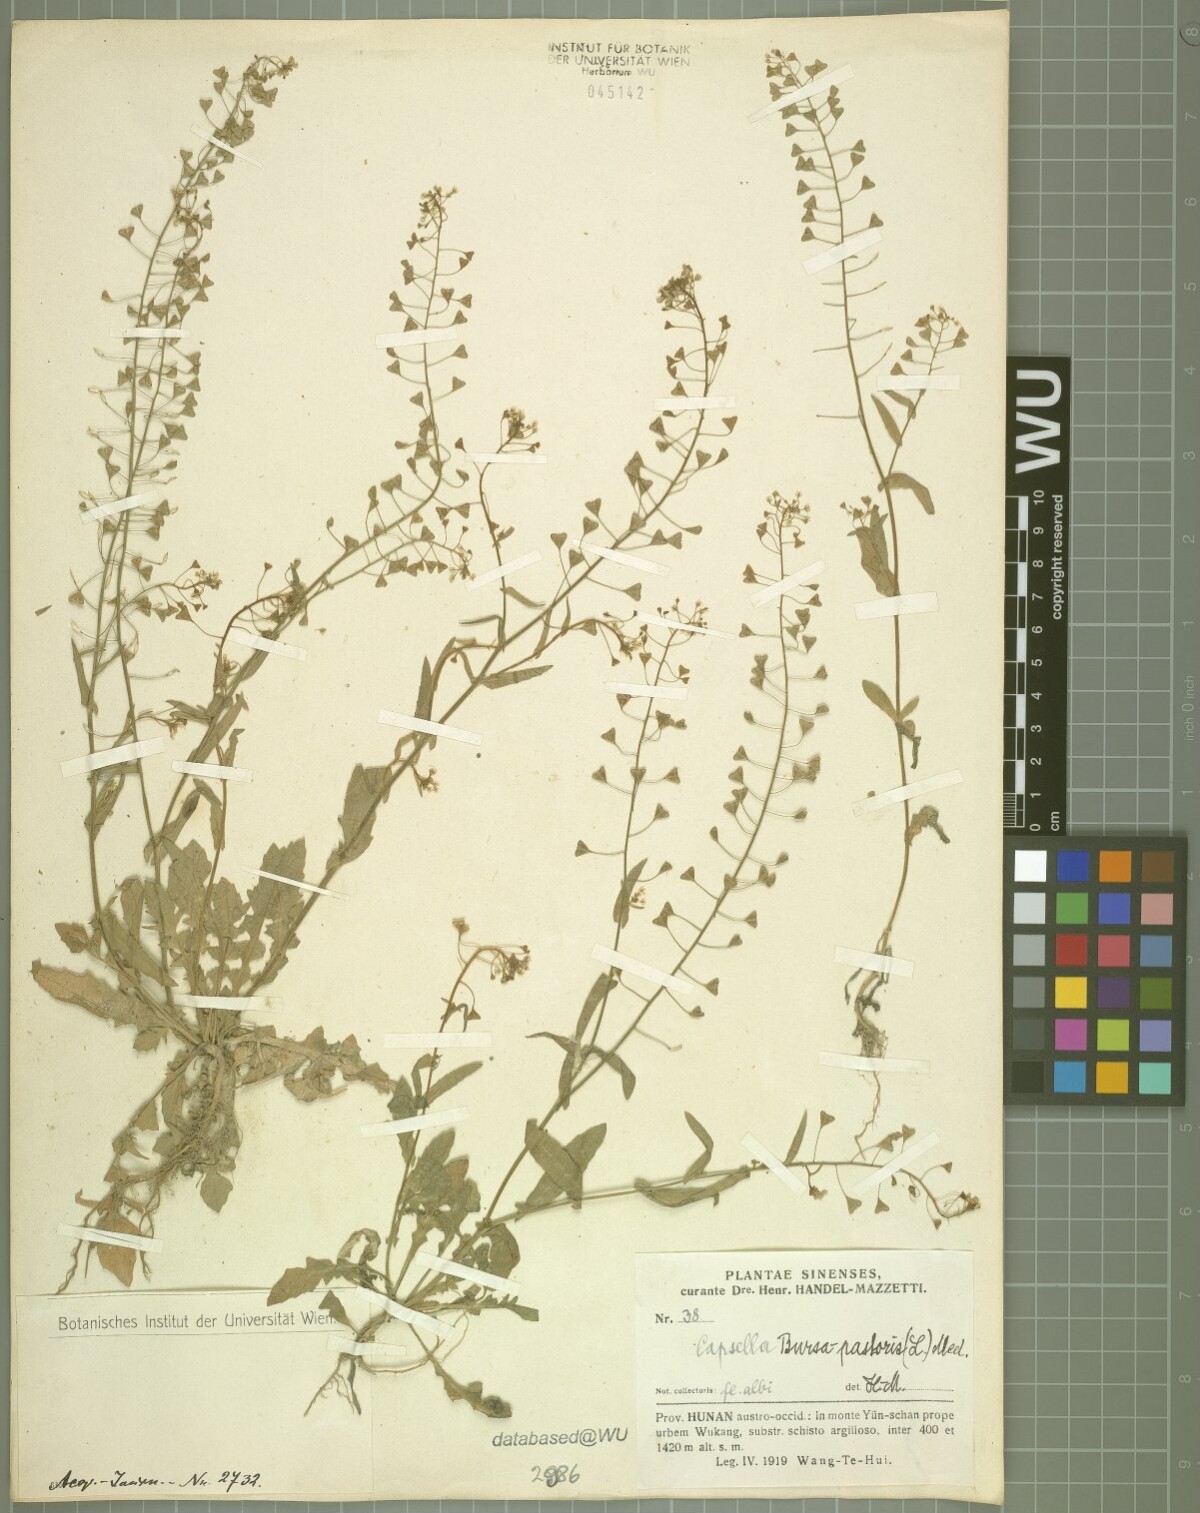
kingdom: Plantae
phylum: Tracheophyta
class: Magnoliopsida
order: Brassicales
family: Brassicaceae
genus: Capsella
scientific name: Capsella bursa-pastoris
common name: Shepherd's purse
